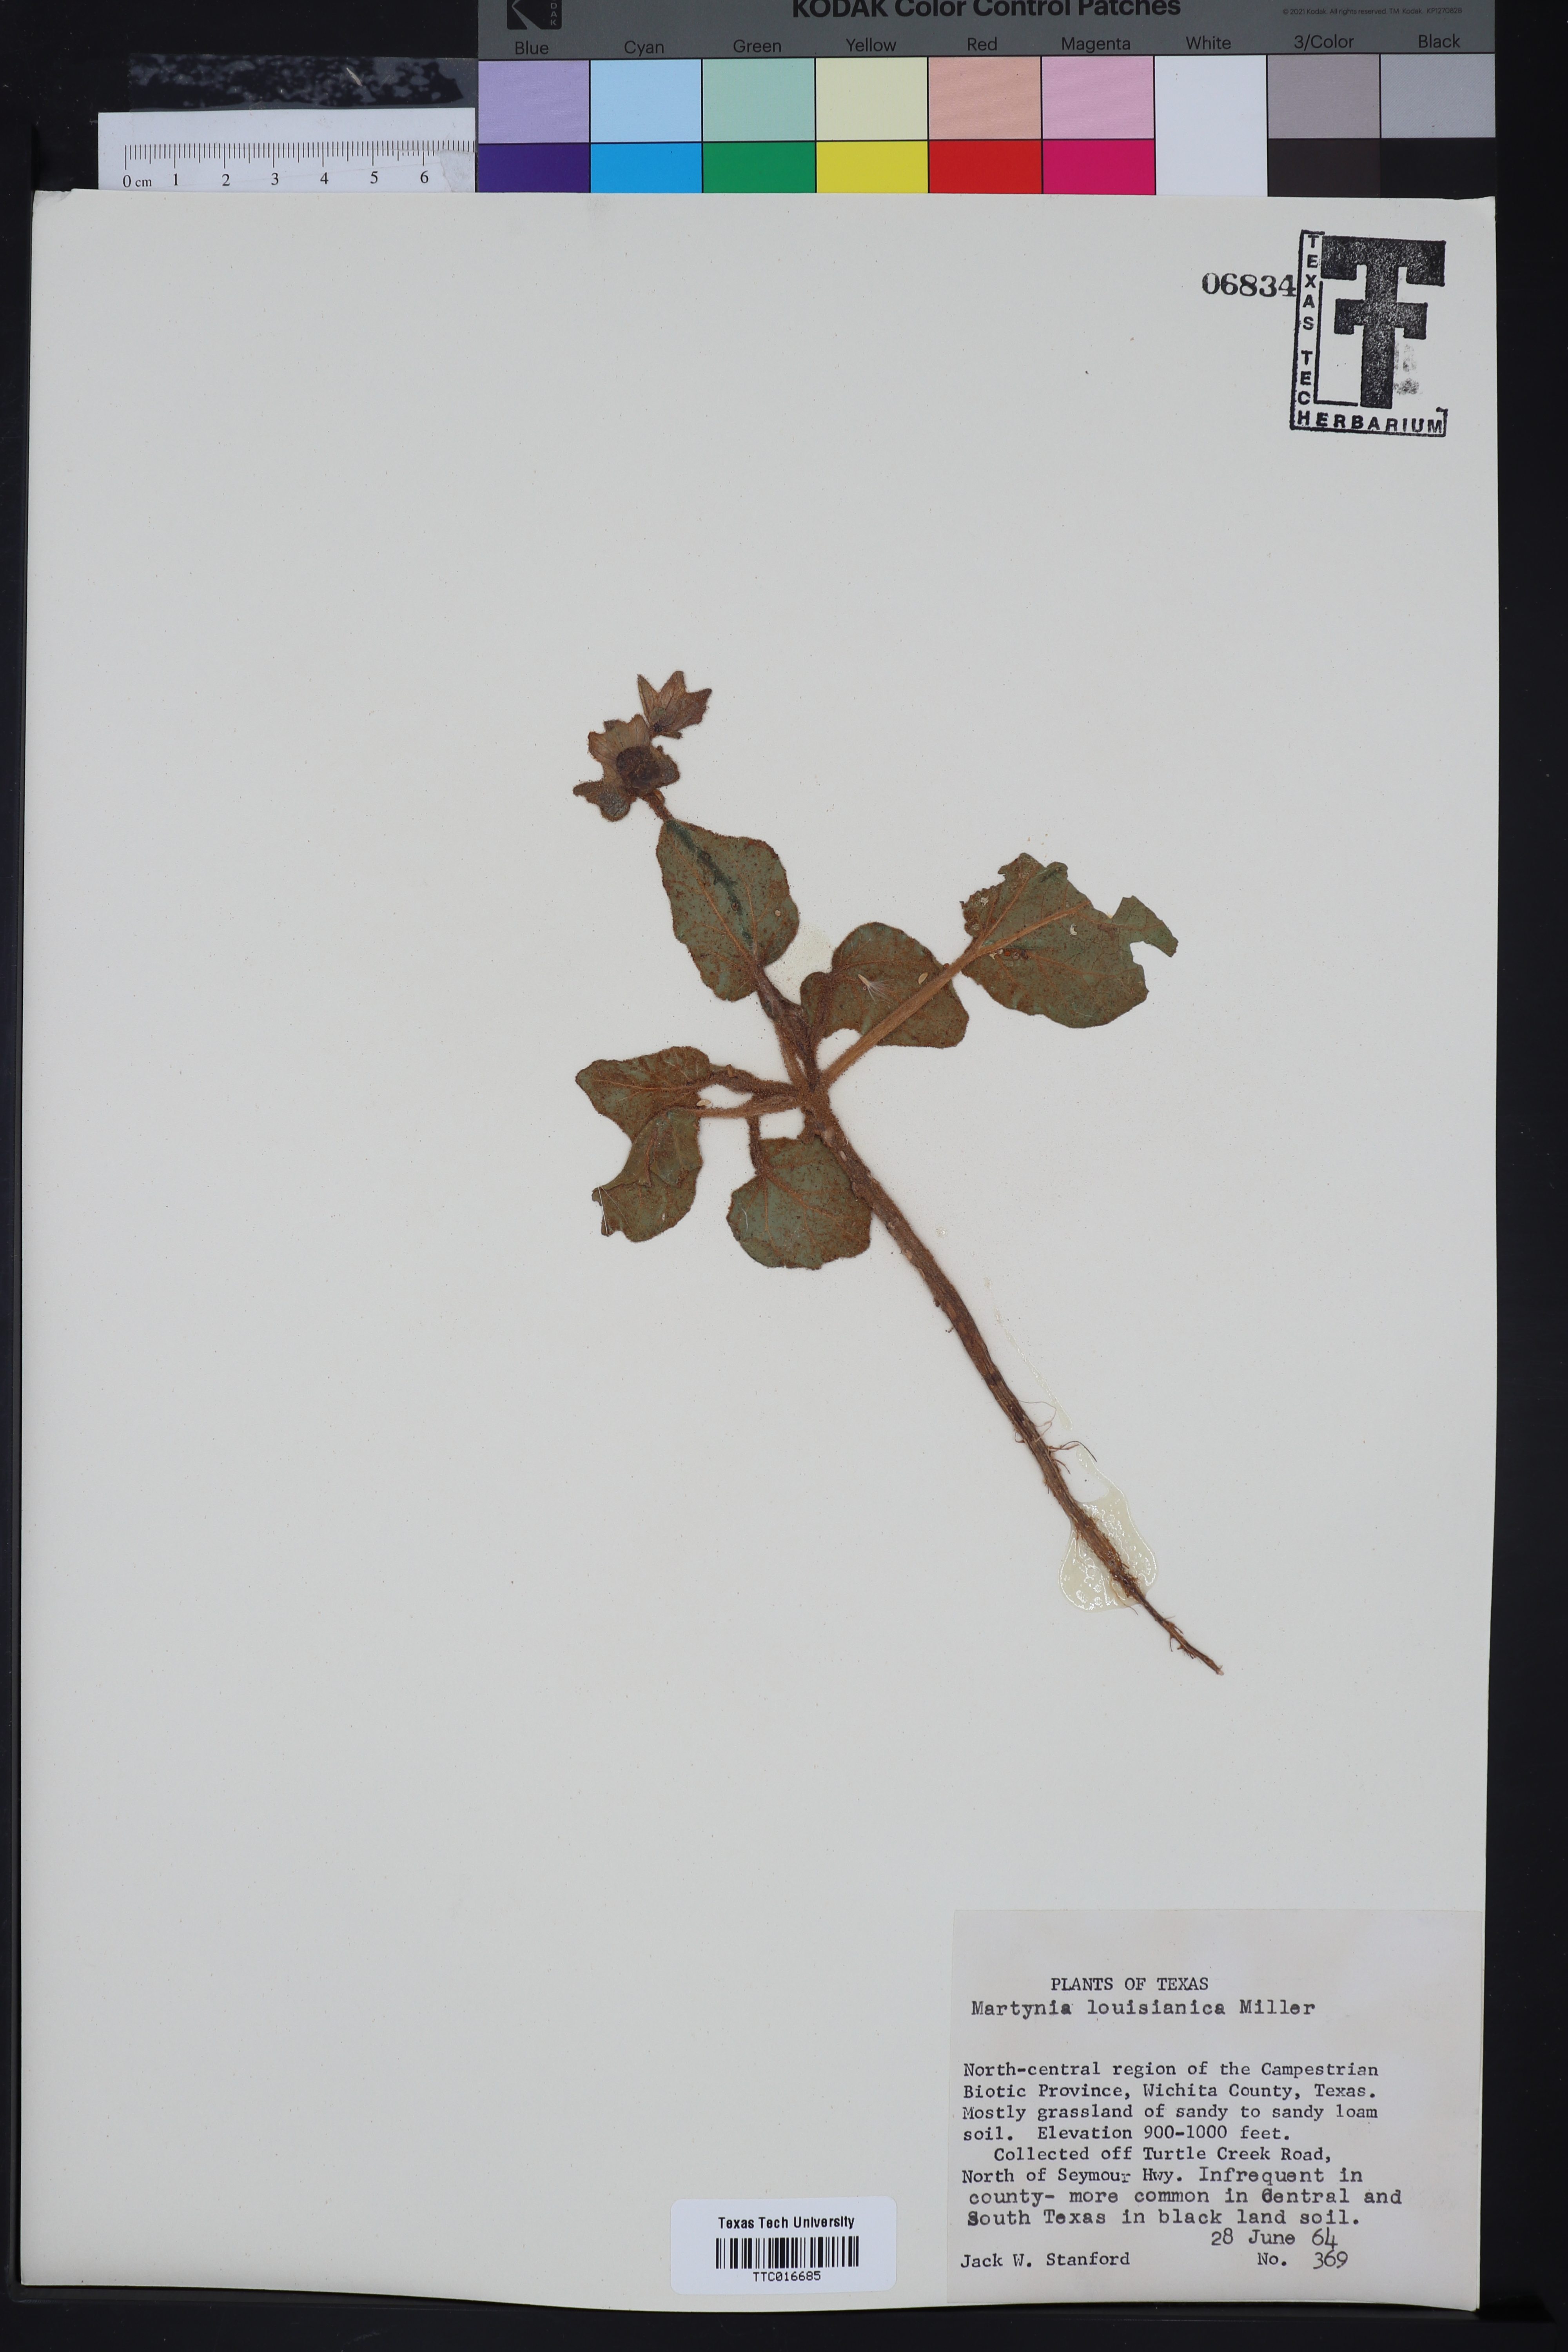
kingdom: Plantae
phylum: Tracheophyta
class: Magnoliopsida
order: Lamiales
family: Martyniaceae
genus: Proboscidea
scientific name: Proboscidea louisianica
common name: Elephant tusks
